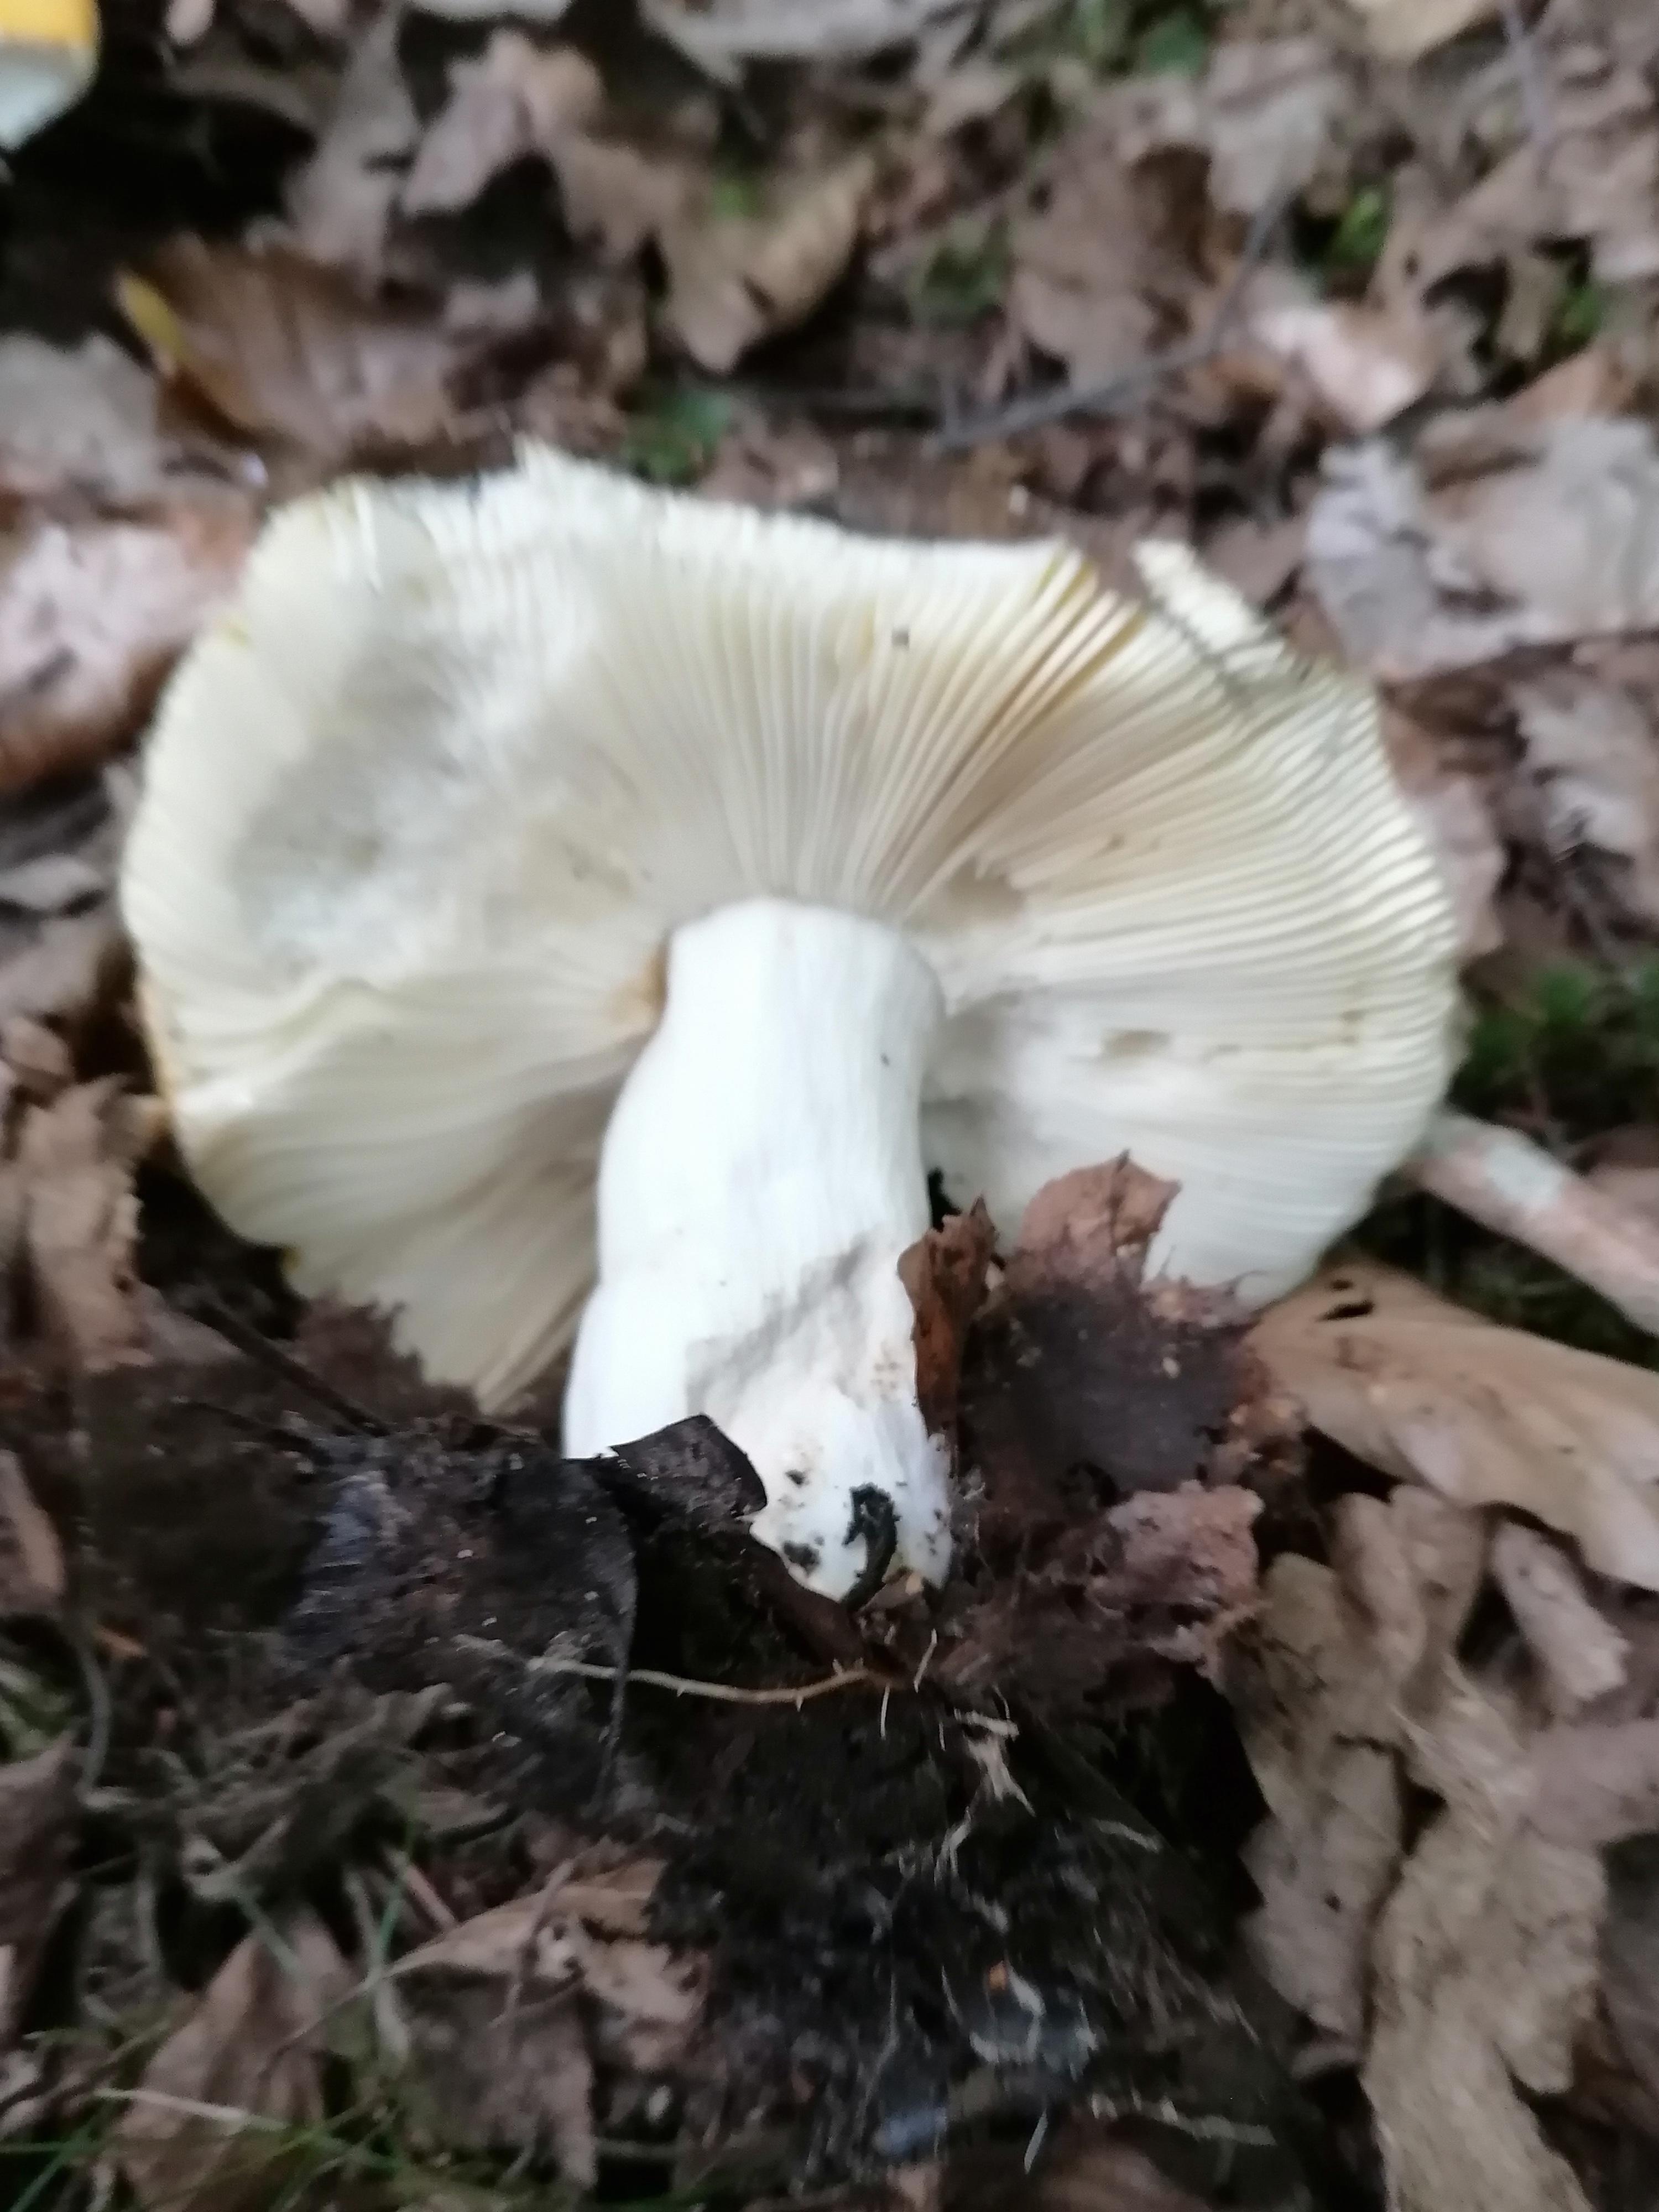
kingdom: Fungi
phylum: Basidiomycota
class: Agaricomycetes
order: Russulales
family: Russulaceae
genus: Russula
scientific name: Russula claroflava
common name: birke-skørhat
